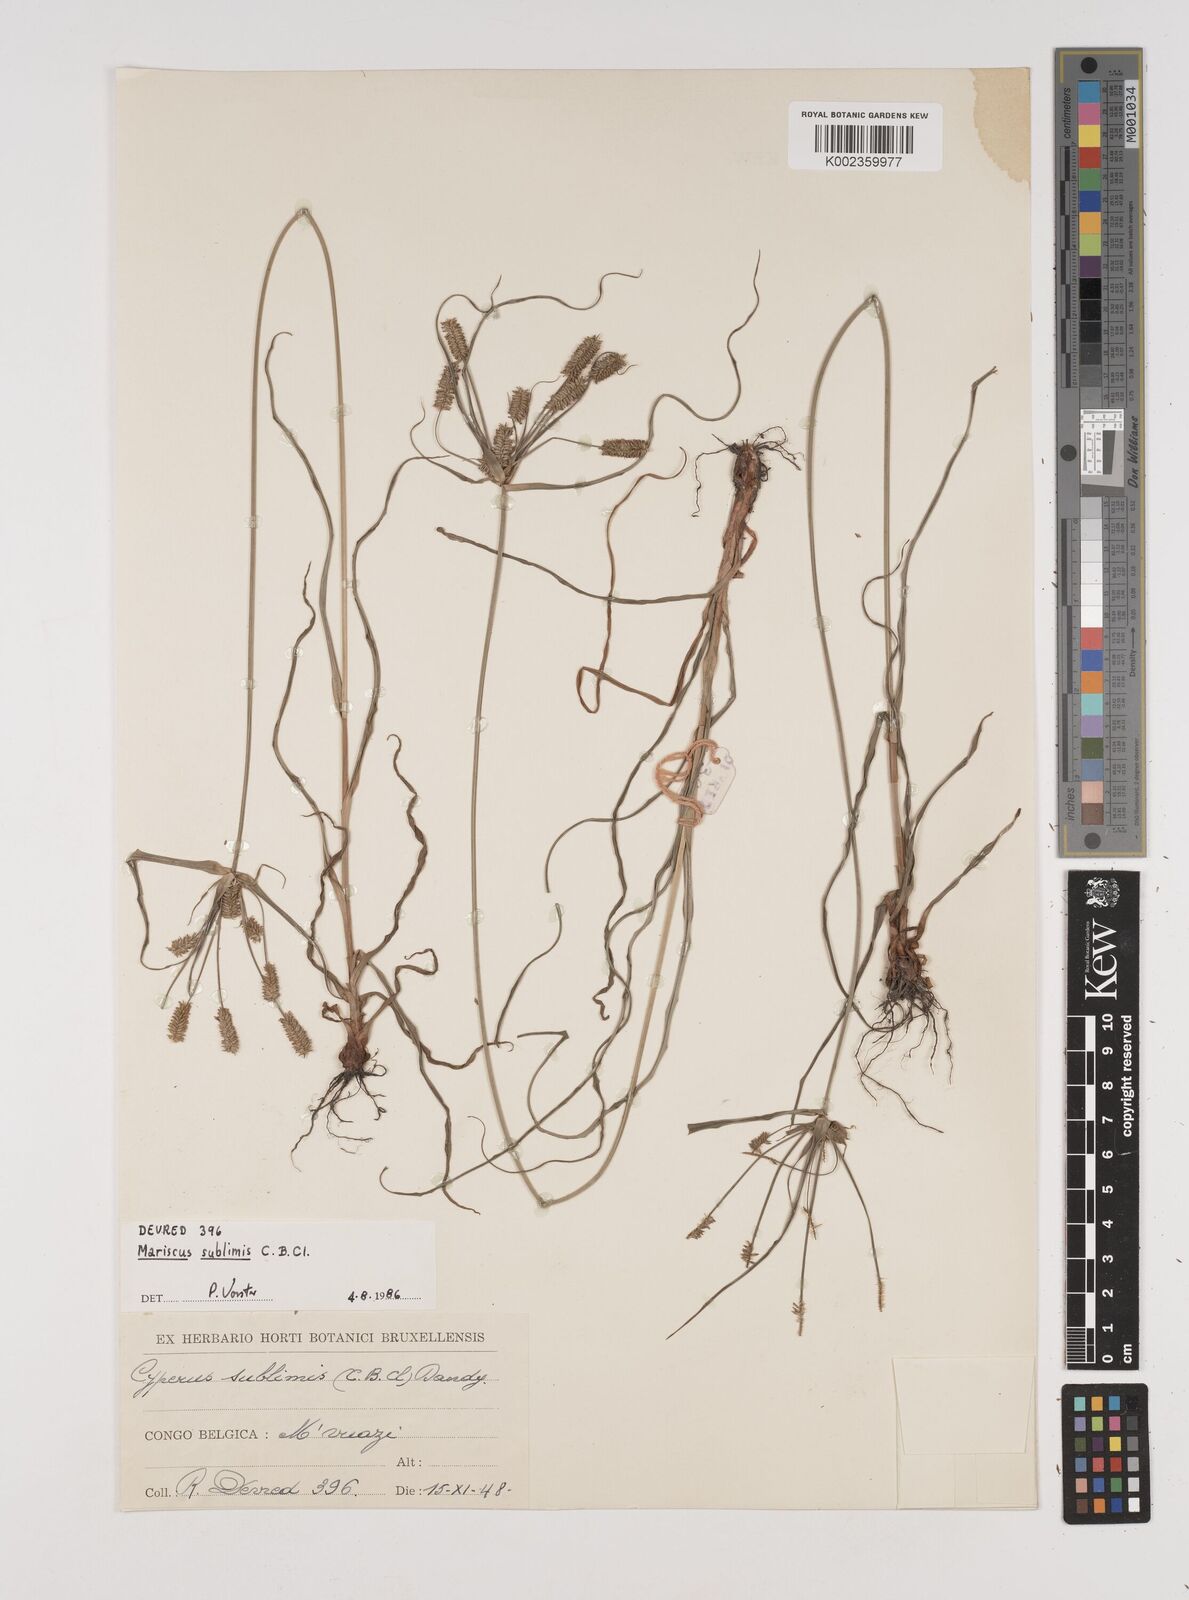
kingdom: Plantae
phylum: Tracheophyta
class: Liliopsida
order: Poales
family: Cyperaceae
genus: Cyperus
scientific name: Cyperus cyperoides
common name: Pacific island flat sedge
